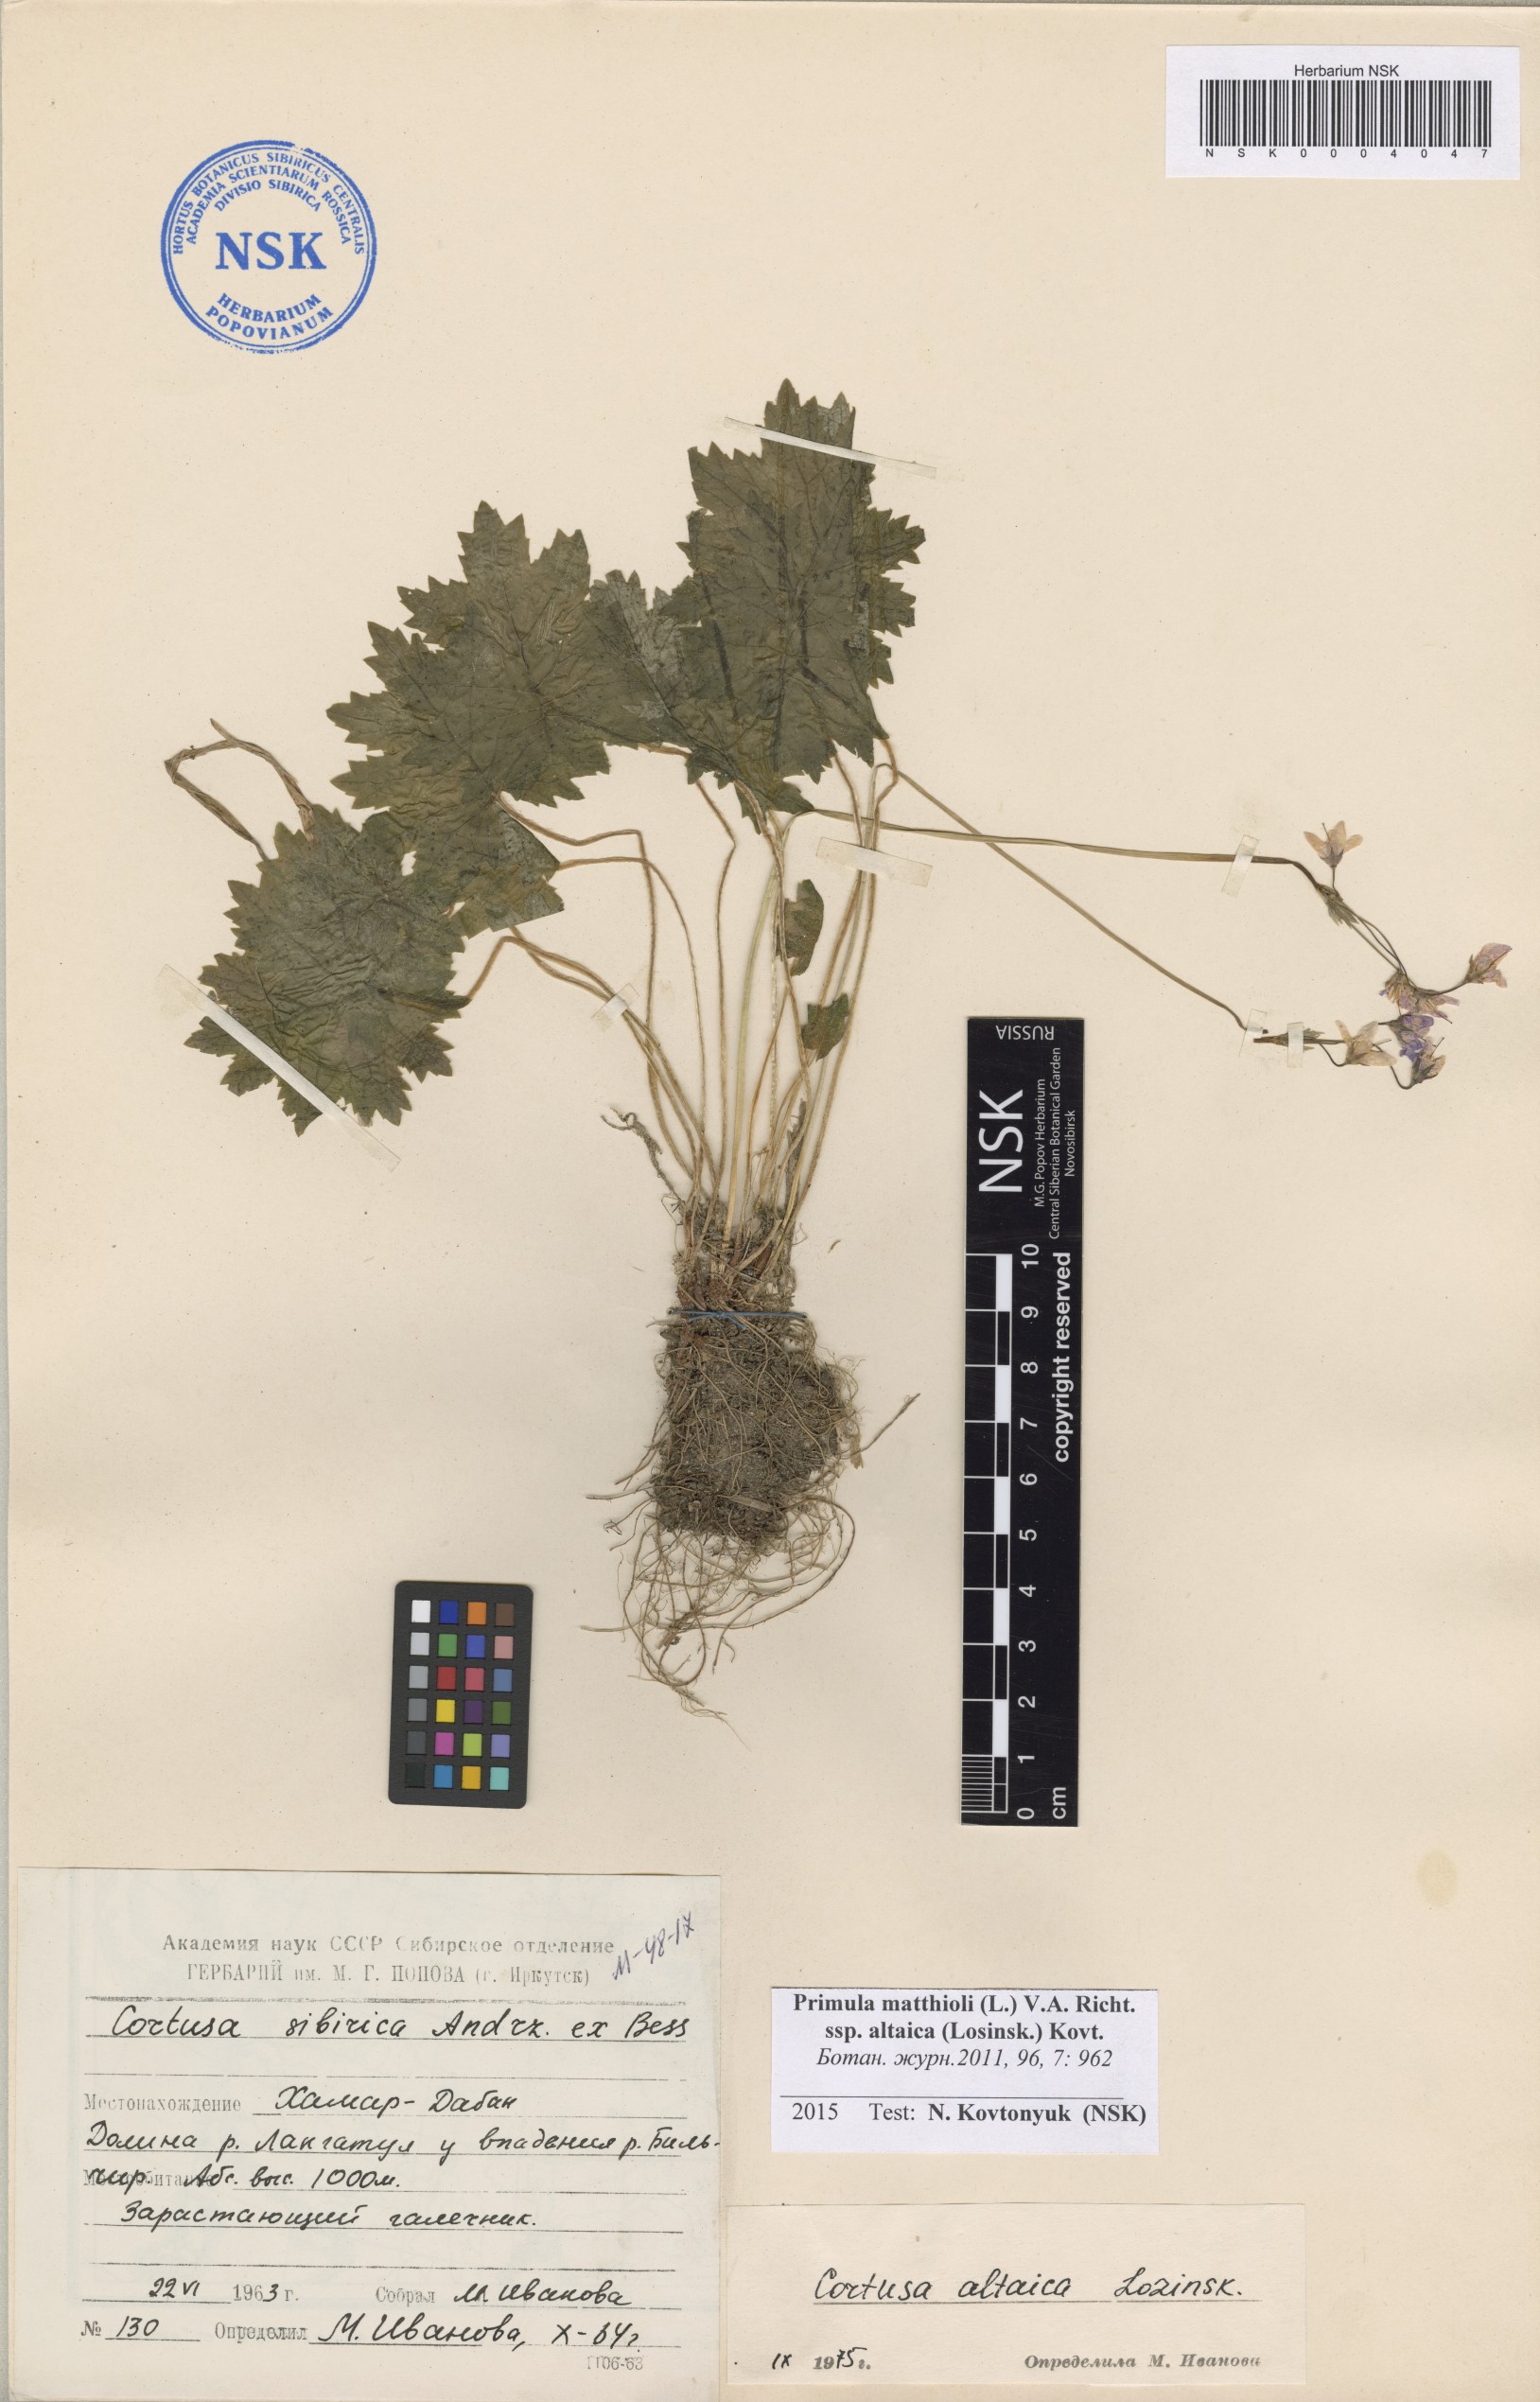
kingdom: Plantae
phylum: Tracheophyta
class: Magnoliopsida
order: Ericales
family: Primulaceae
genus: Primula
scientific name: Primula matthioli
